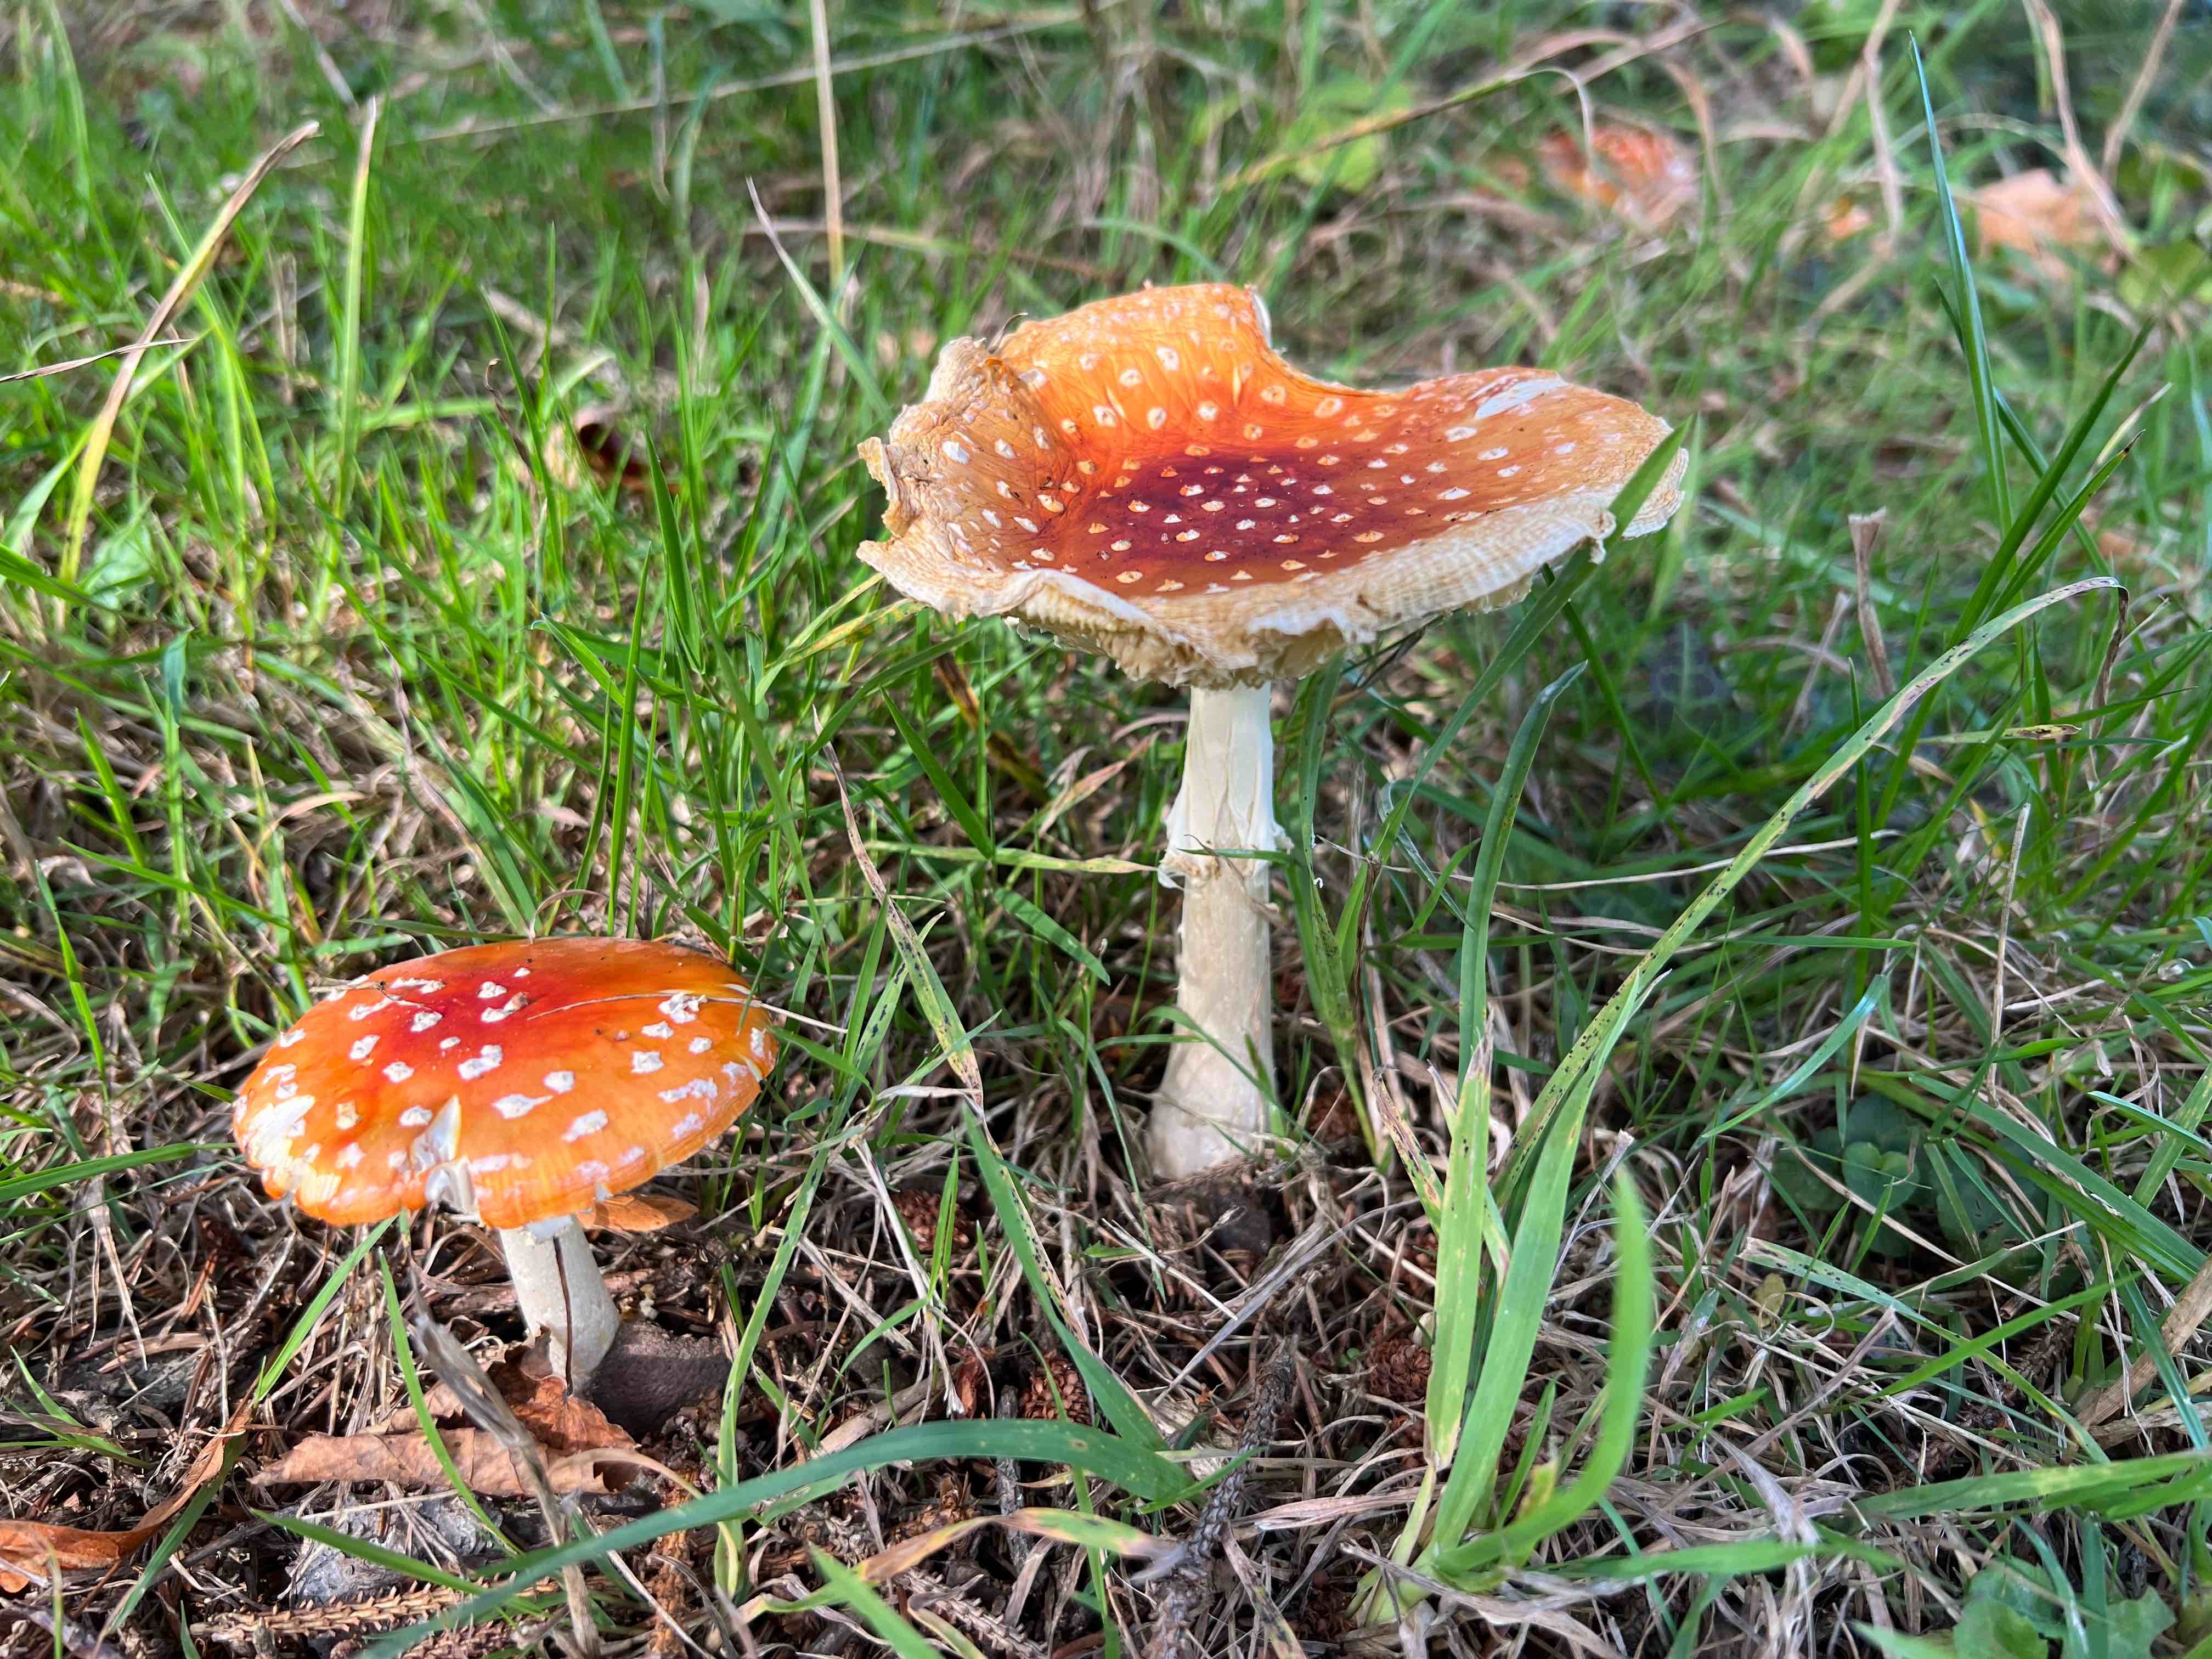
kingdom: Fungi
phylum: Basidiomycota
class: Agaricomycetes
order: Agaricales
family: Amanitaceae
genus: Amanita
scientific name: Amanita muscaria
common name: rød fluesvamp
